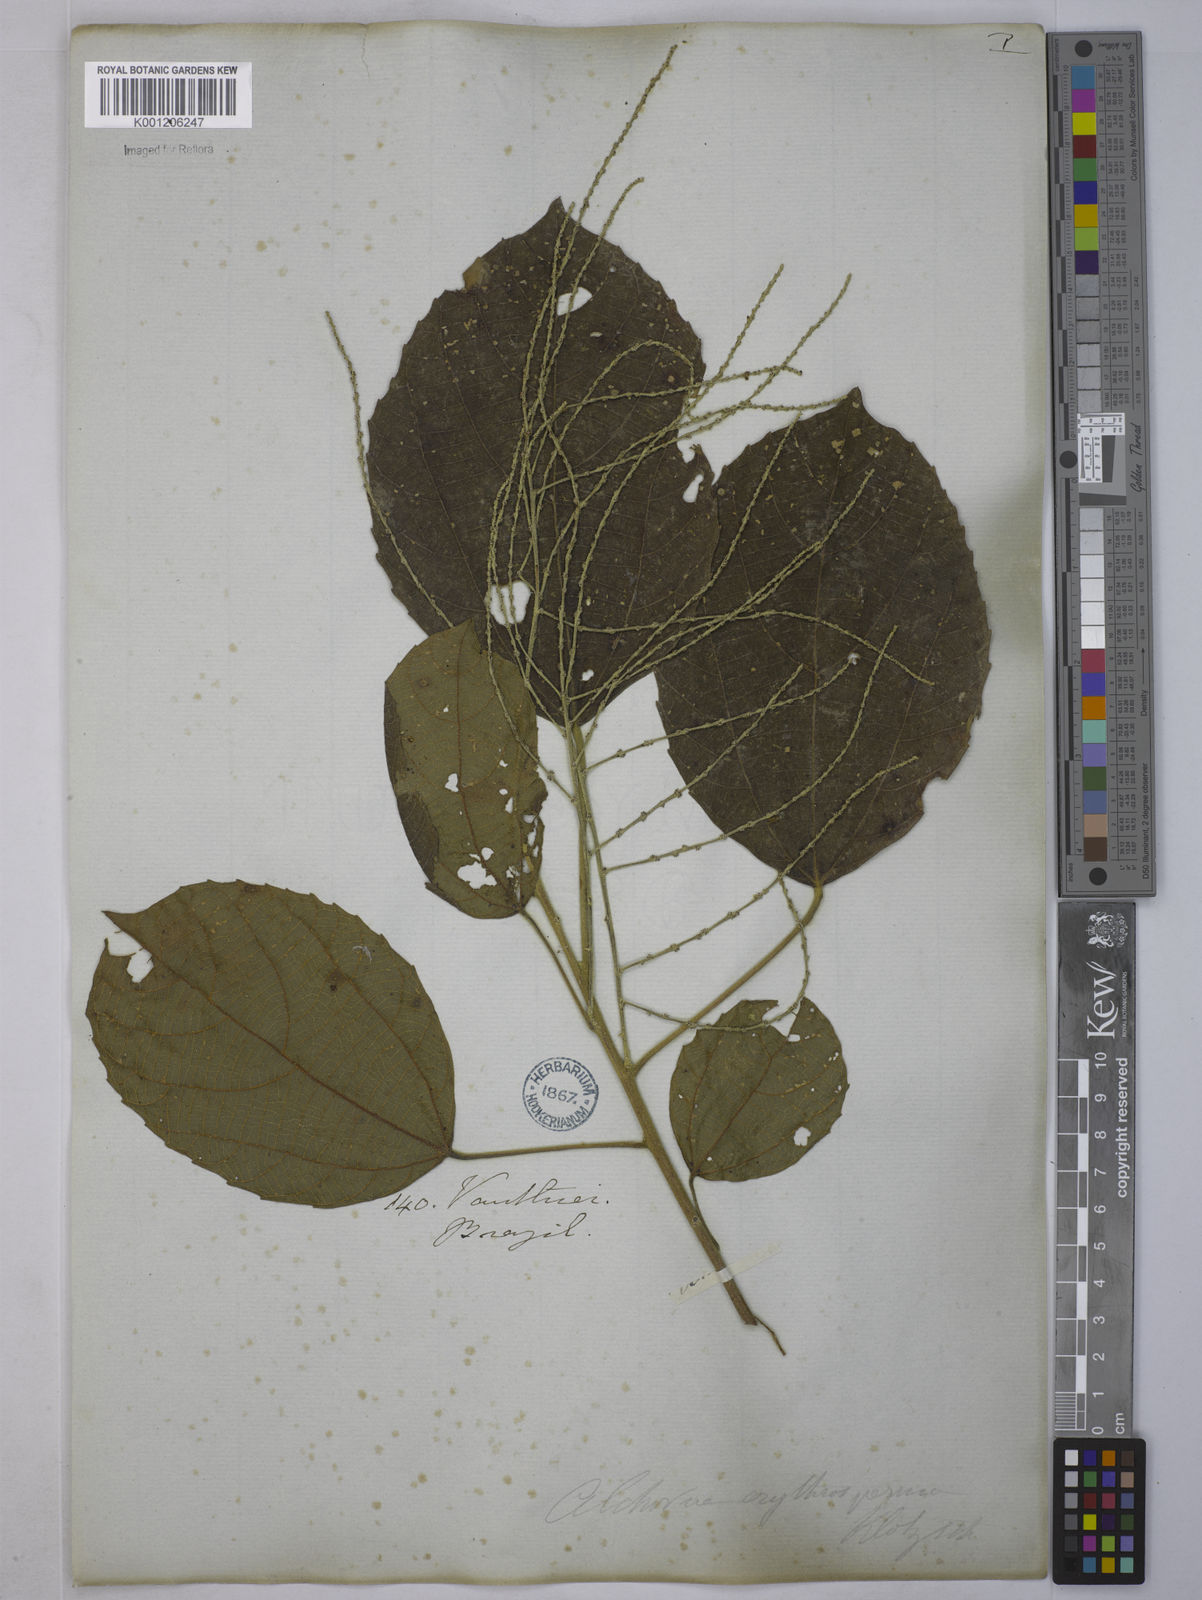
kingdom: Plantae
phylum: Tracheophyta
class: Magnoliopsida
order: Malpighiales
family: Euphorbiaceae
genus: Alchornea
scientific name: Alchornea glandulosa
